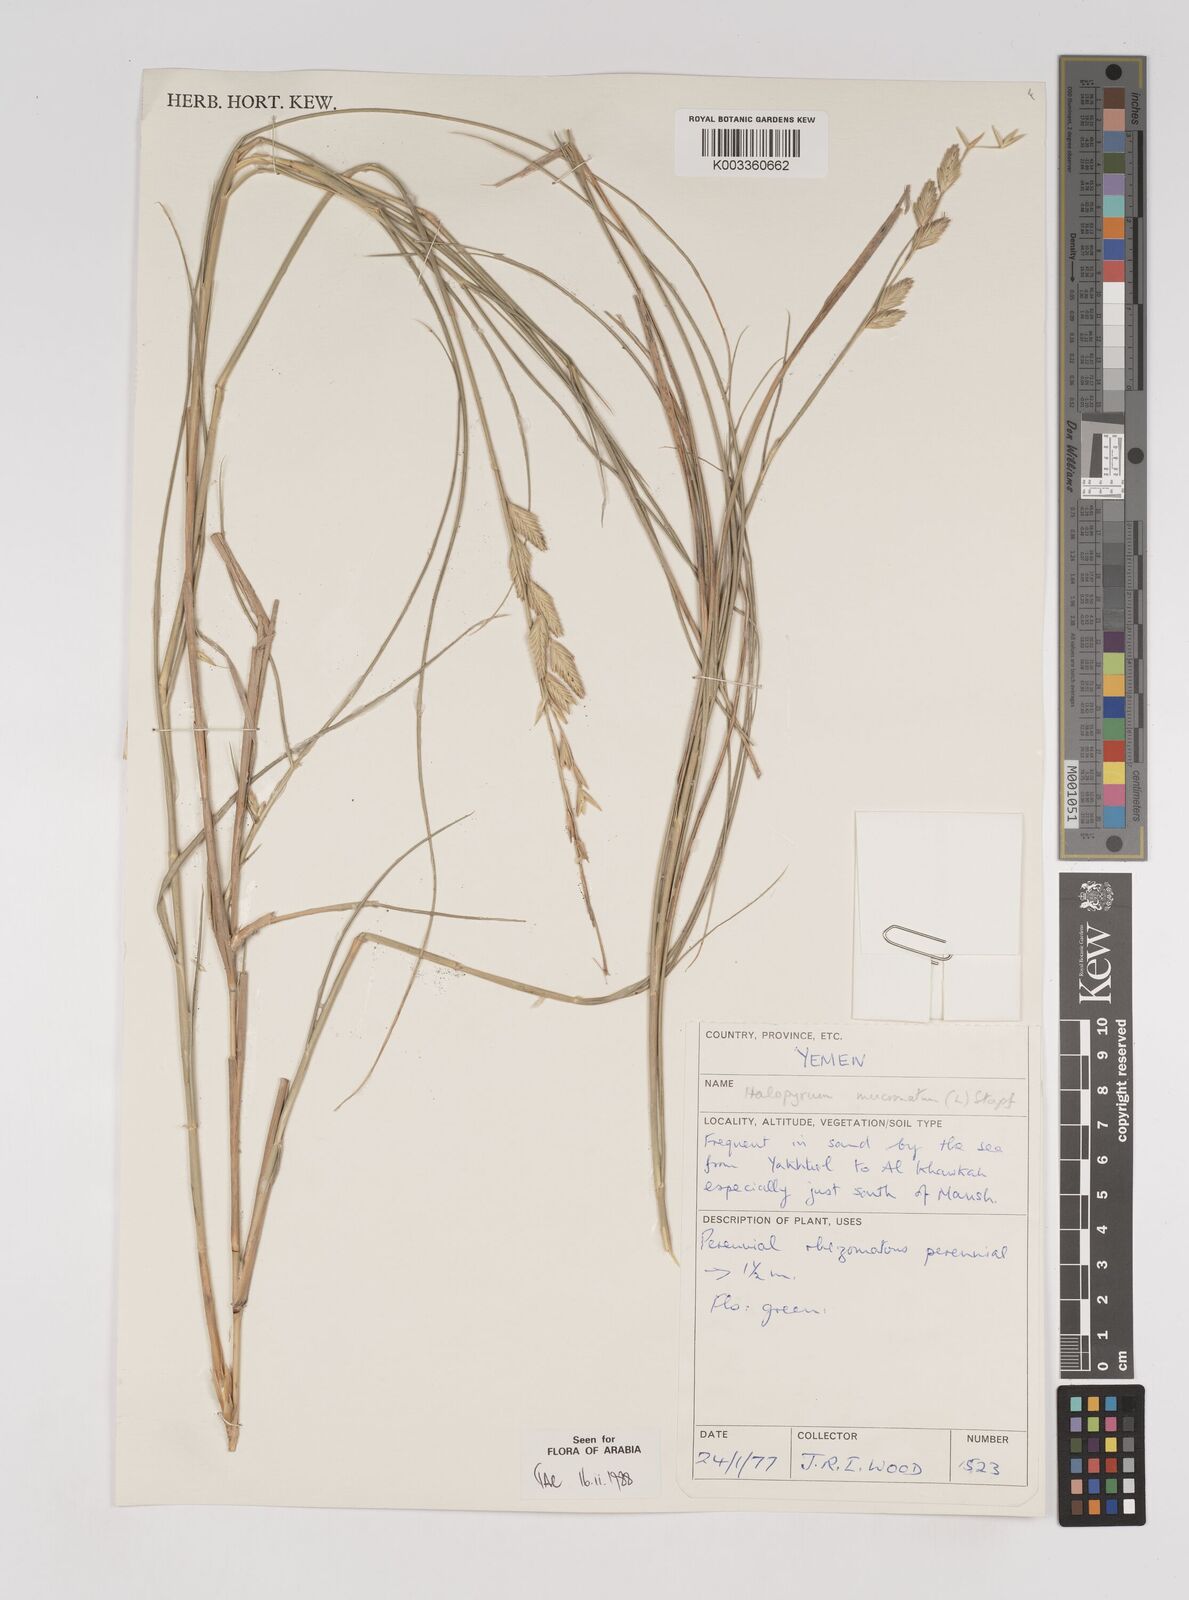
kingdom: Plantae
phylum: Tracheophyta
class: Liliopsida
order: Poales
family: Poaceae
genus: Halopyrum
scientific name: Halopyrum mucronatum
